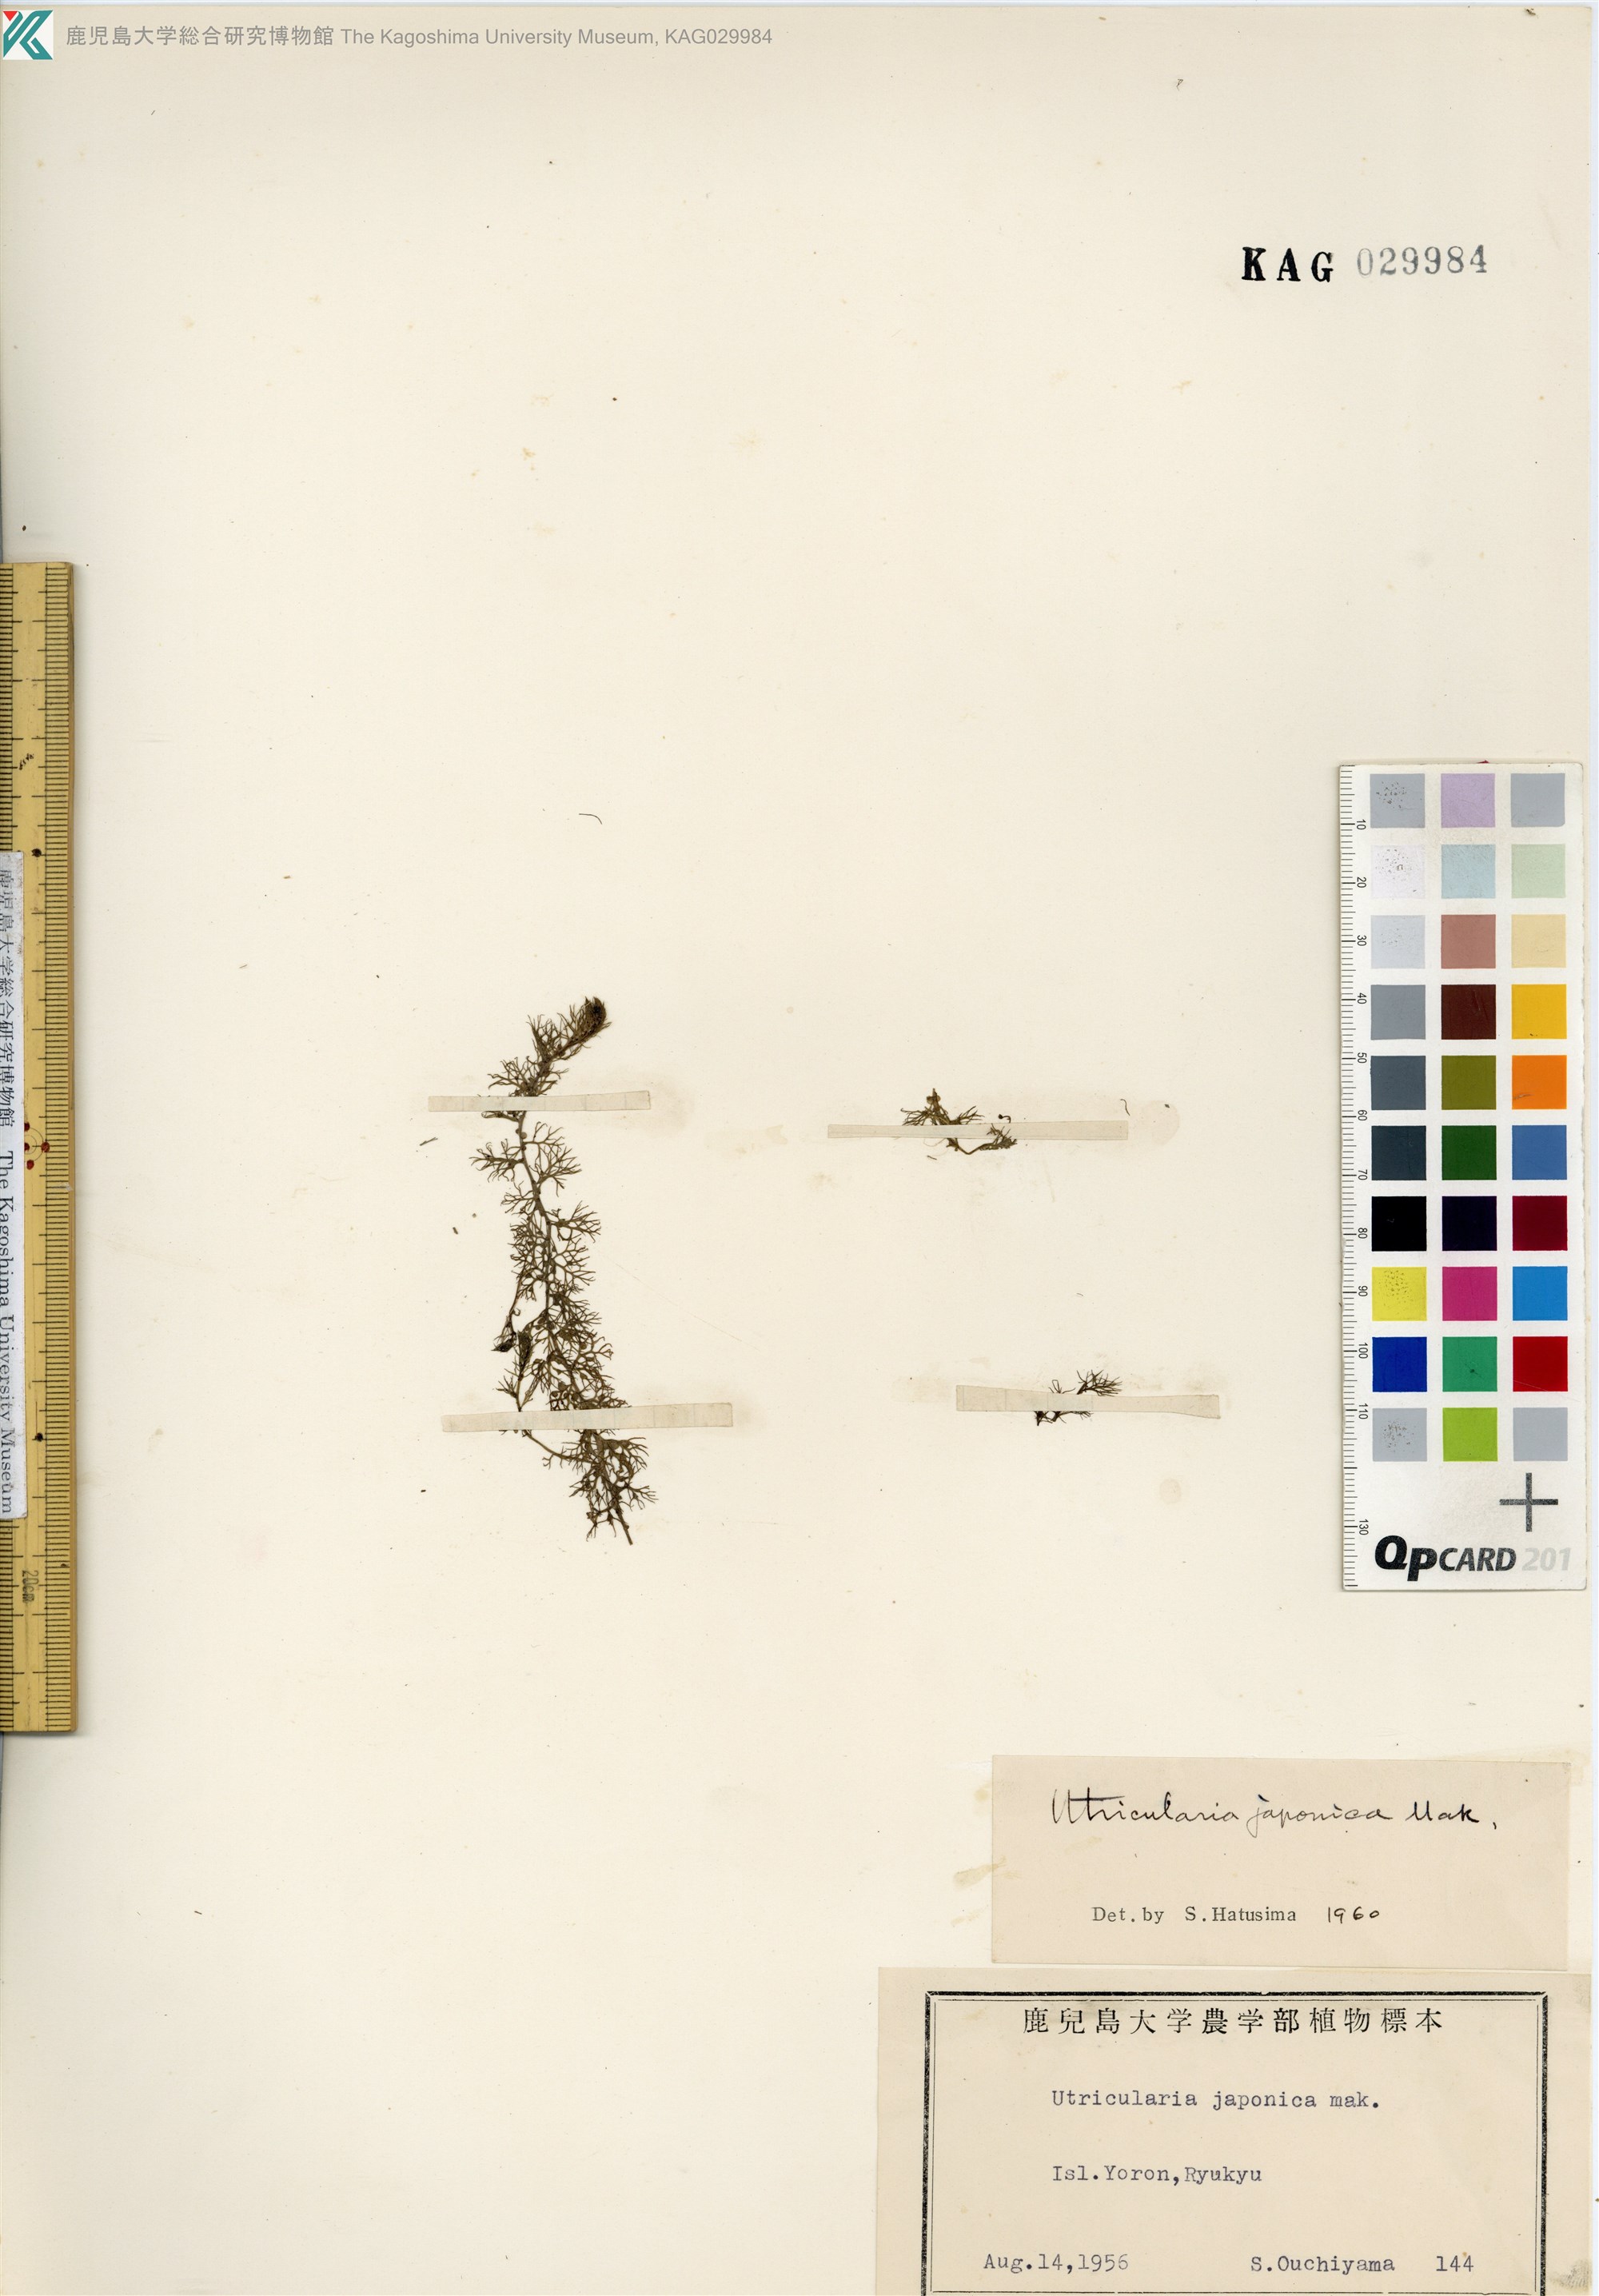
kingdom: Plantae
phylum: Tracheophyta
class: Magnoliopsida
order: Lamiales
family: Lentibulariaceae
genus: Utricularia
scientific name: Utricularia japonica
